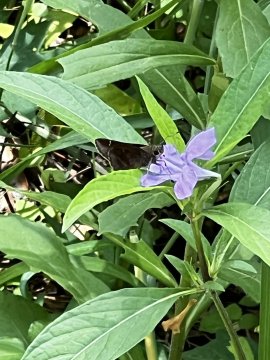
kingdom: Animalia
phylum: Arthropoda
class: Insecta
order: Lepidoptera
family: Hesperiidae
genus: Lerema
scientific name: Lerema accius
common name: Clouded Skipper
